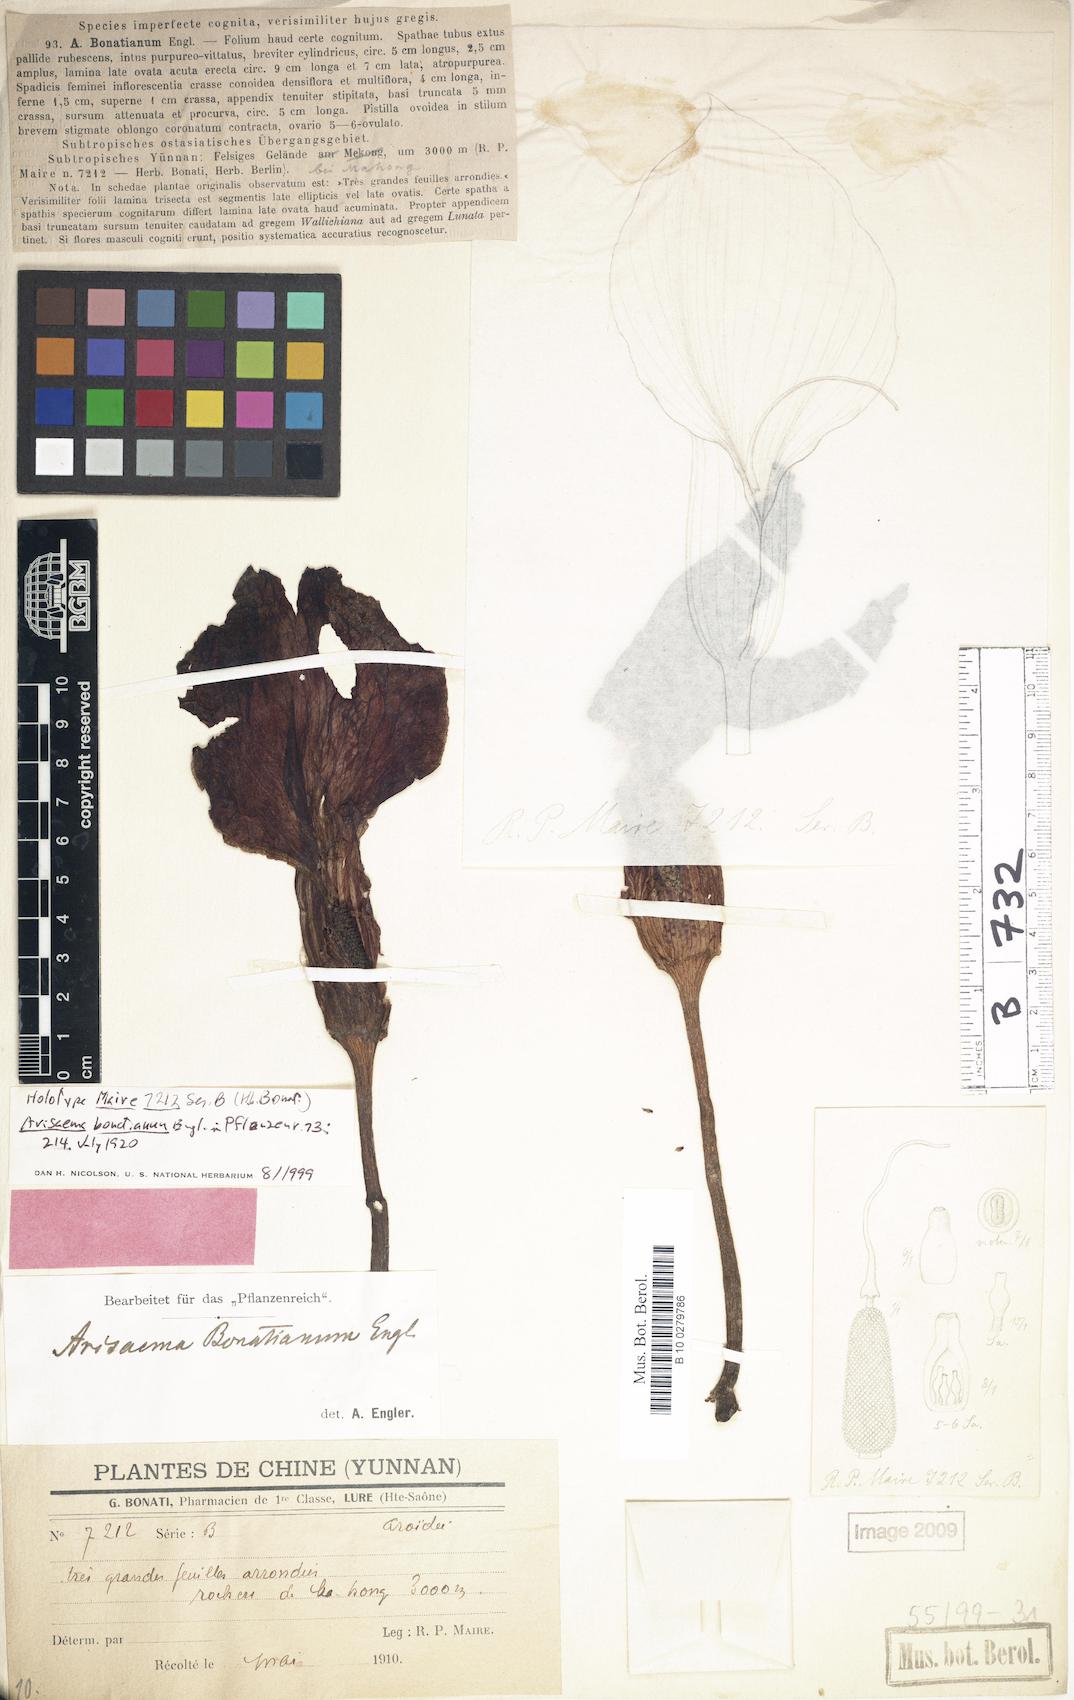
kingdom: Plantae
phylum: Tracheophyta
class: Liliopsida
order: Alismatales
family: Araceae
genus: Arisaema
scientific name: Arisaema bonatianum
